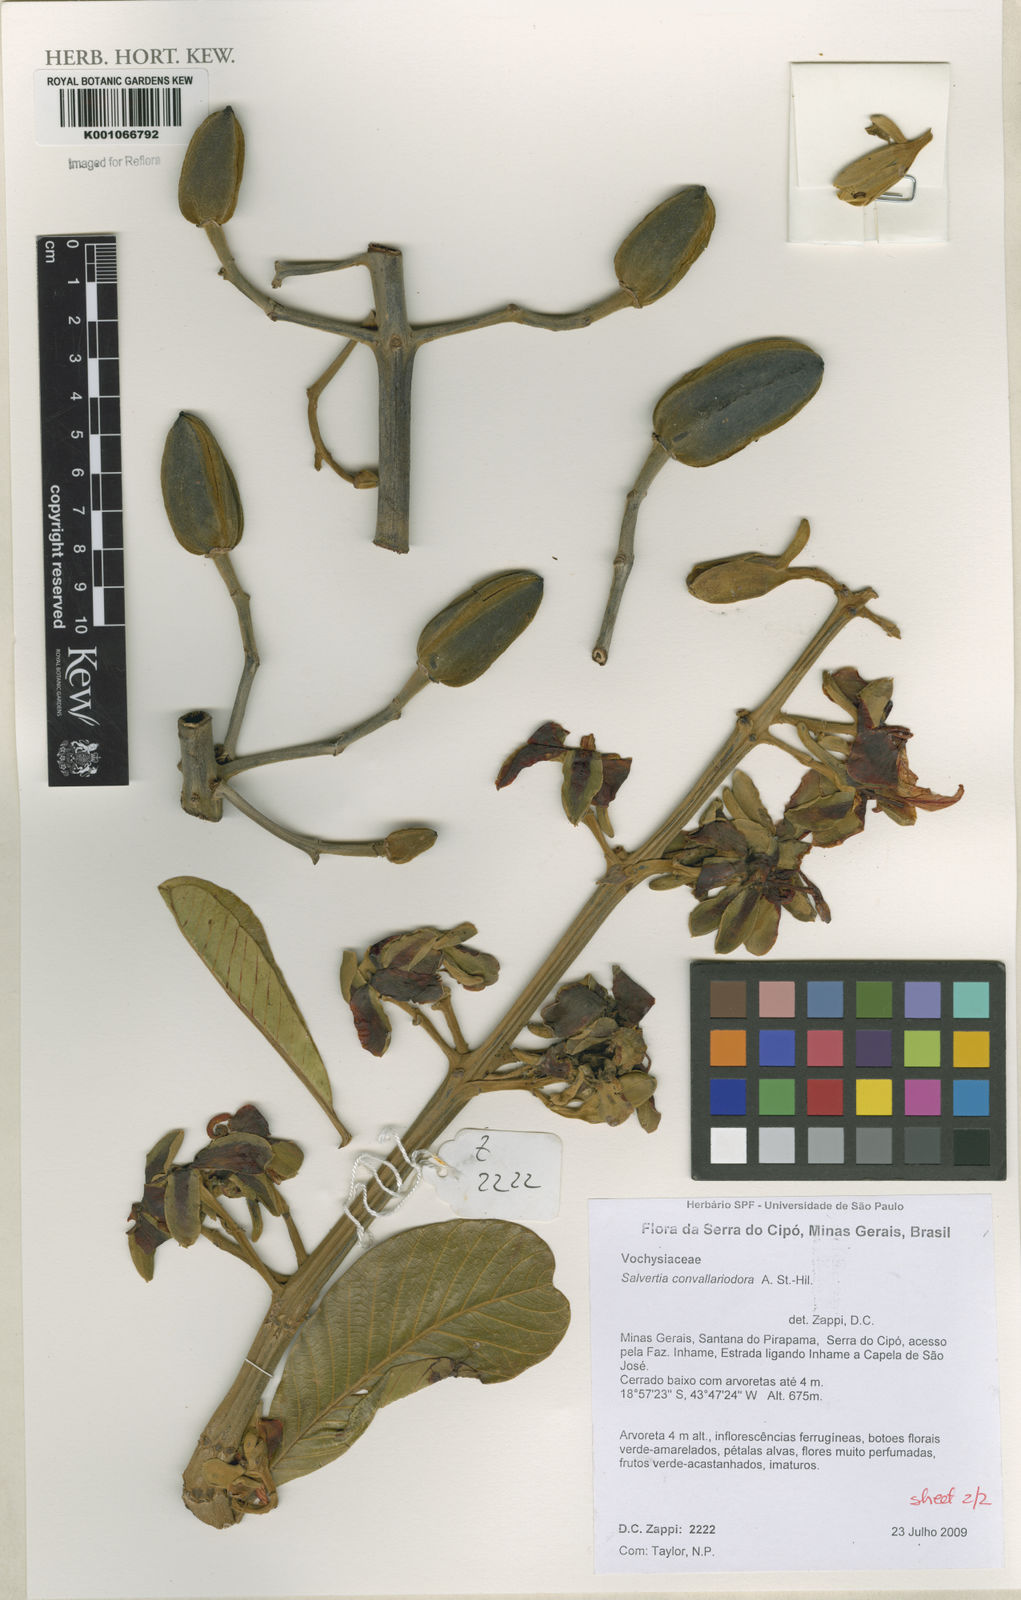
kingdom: Plantae
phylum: Tracheophyta
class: Magnoliopsida
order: Myrtales
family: Vochysiaceae
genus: Salvertia
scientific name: Salvertia convallariodora
